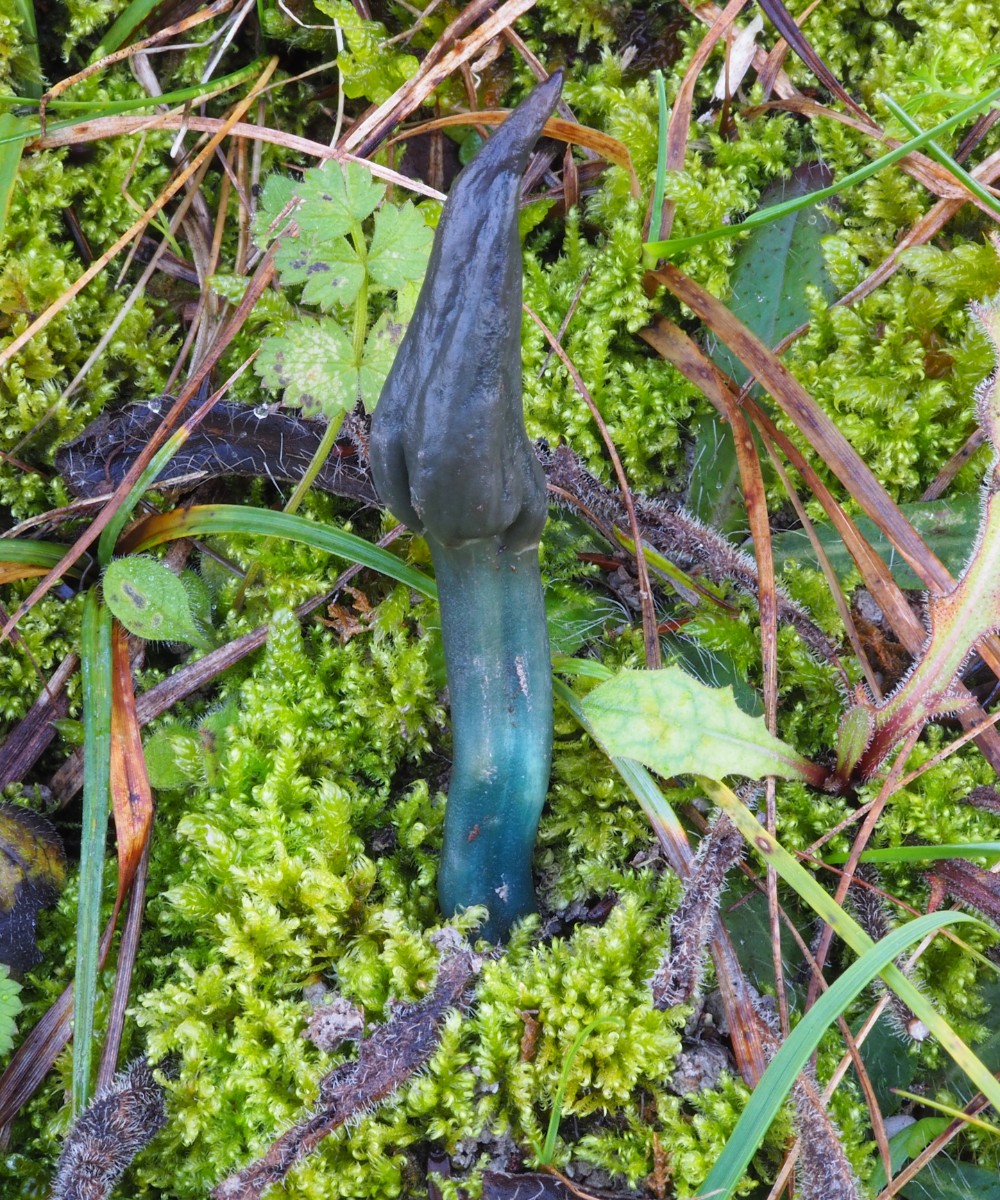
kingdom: Fungi
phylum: Ascomycota
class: Leotiomycetes
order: Leotiales
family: Leotiaceae
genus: Microglossum
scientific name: Microglossum tenebrosum
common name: turkis-farvetunge
